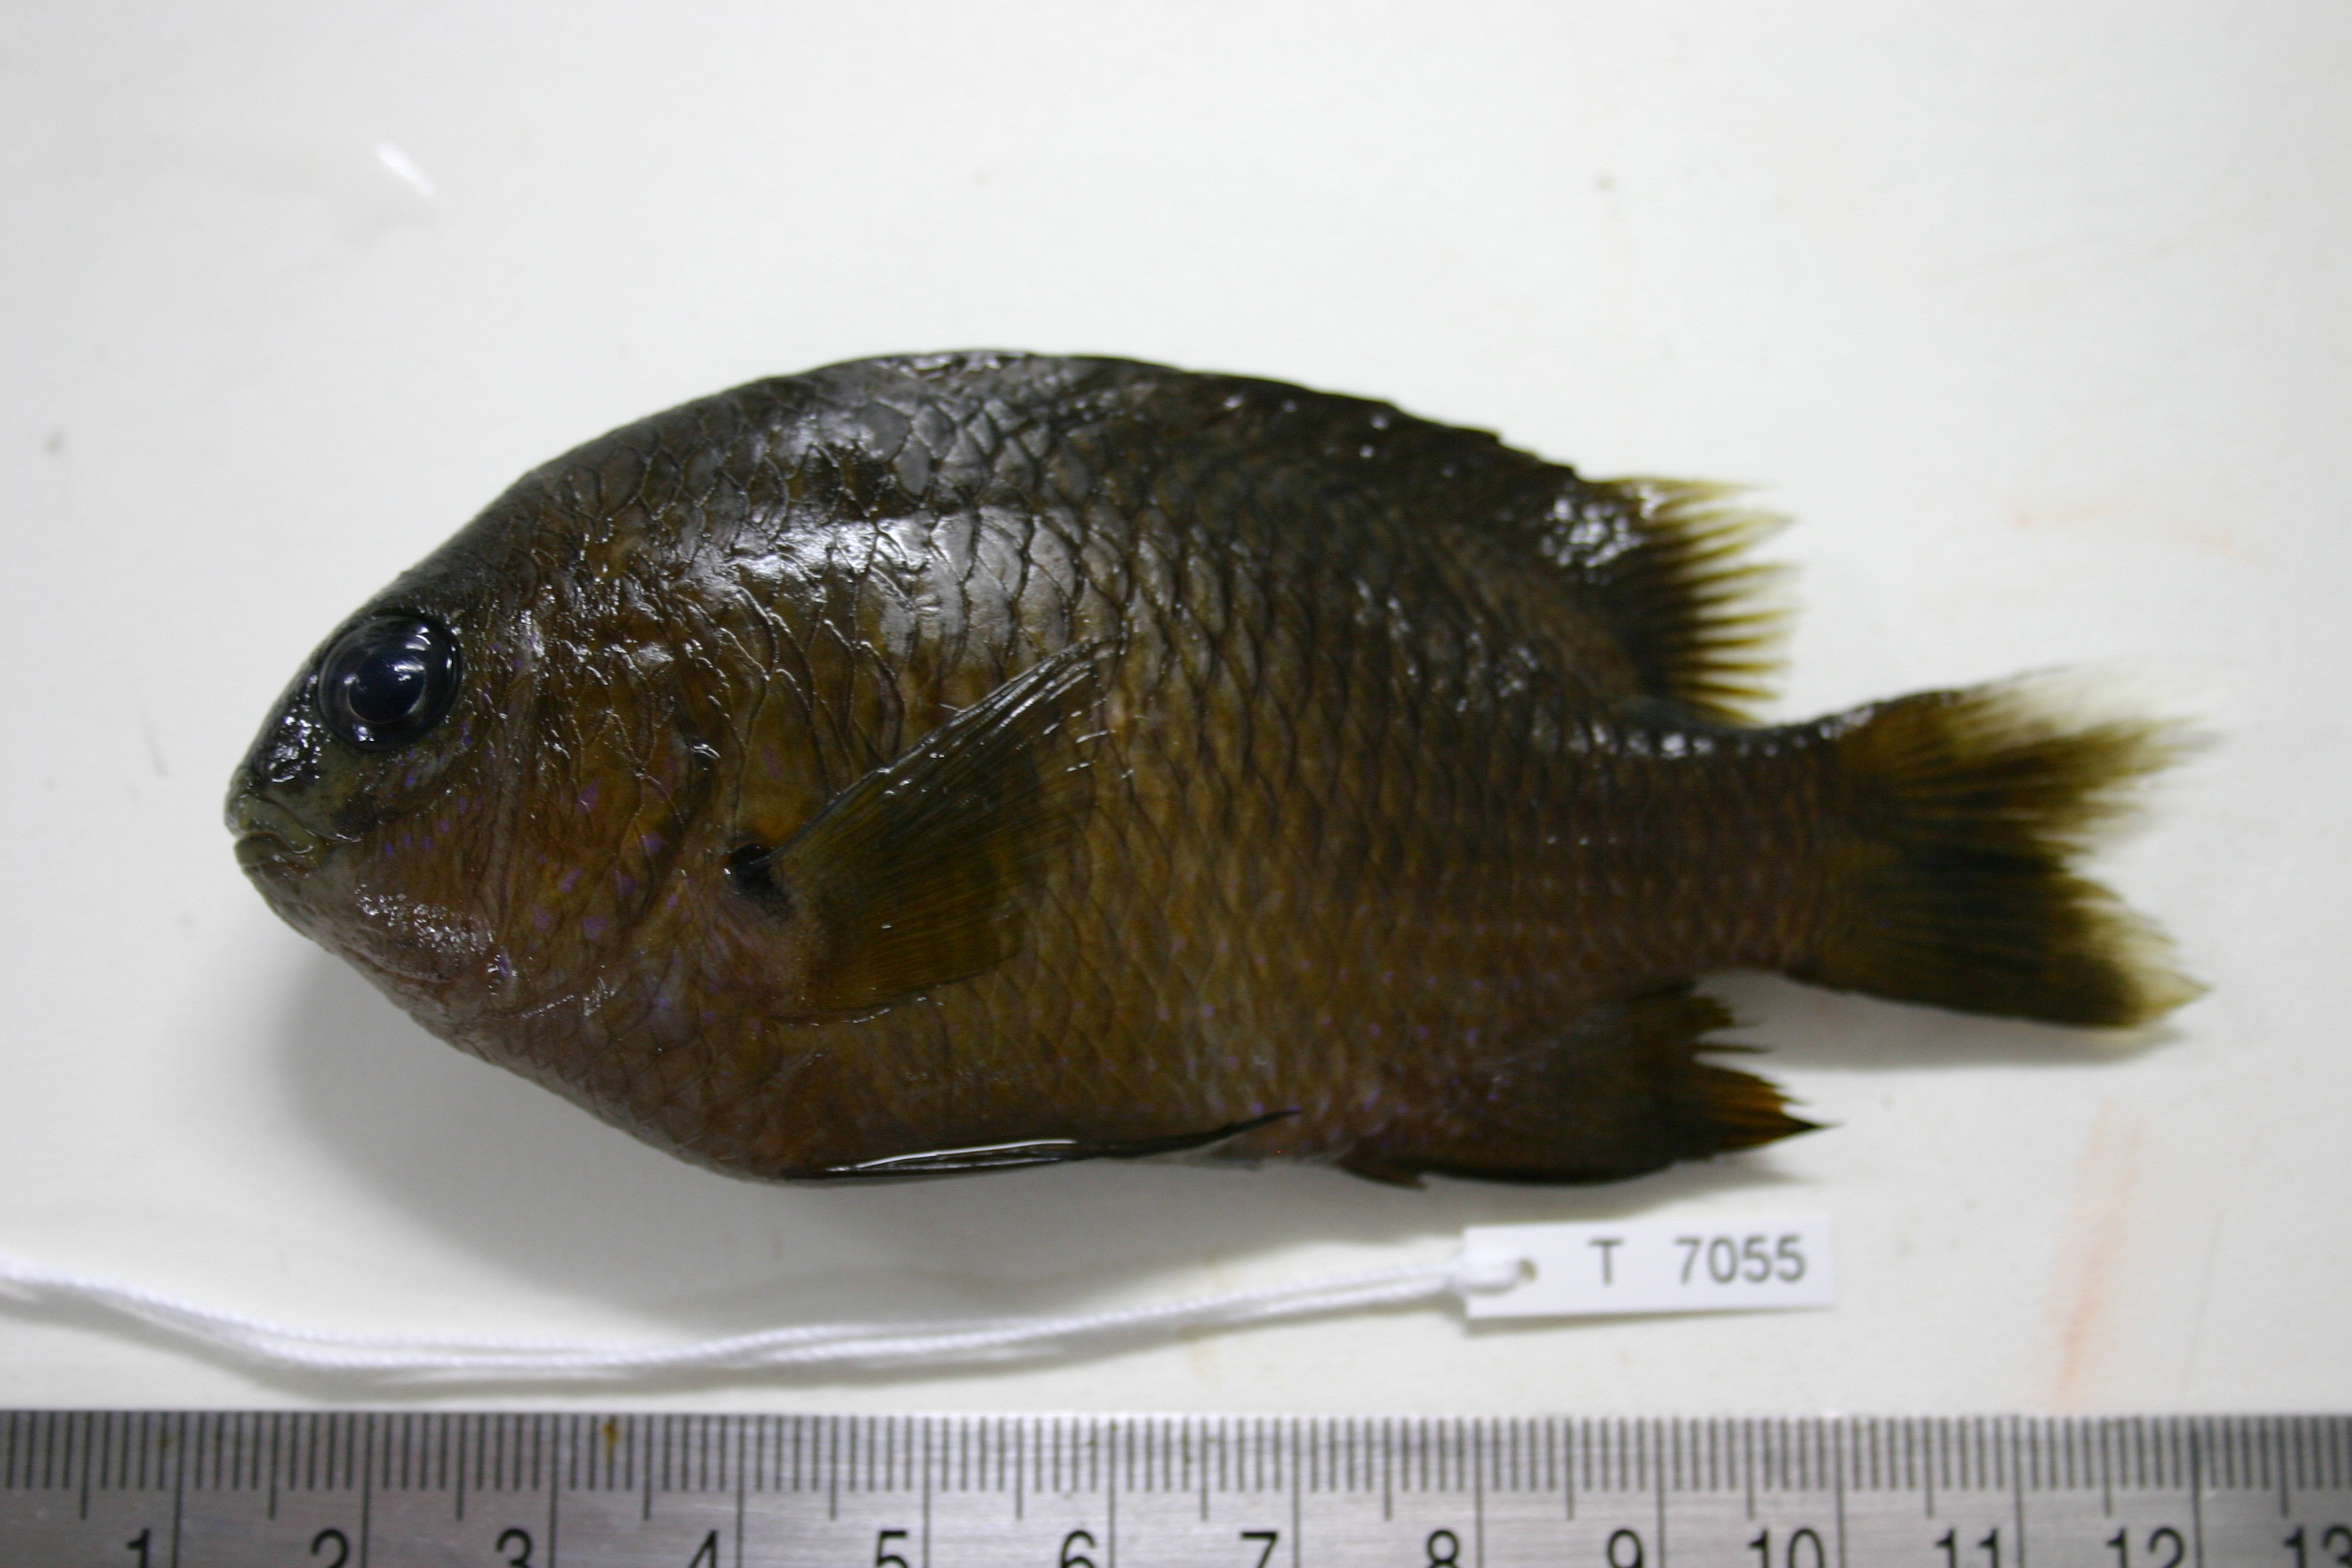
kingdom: Animalia
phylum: Chordata
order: Perciformes
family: Pomacentridae
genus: Plectroglyphidodon
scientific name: Plectroglyphidodon leucozonus
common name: White-band damsel
